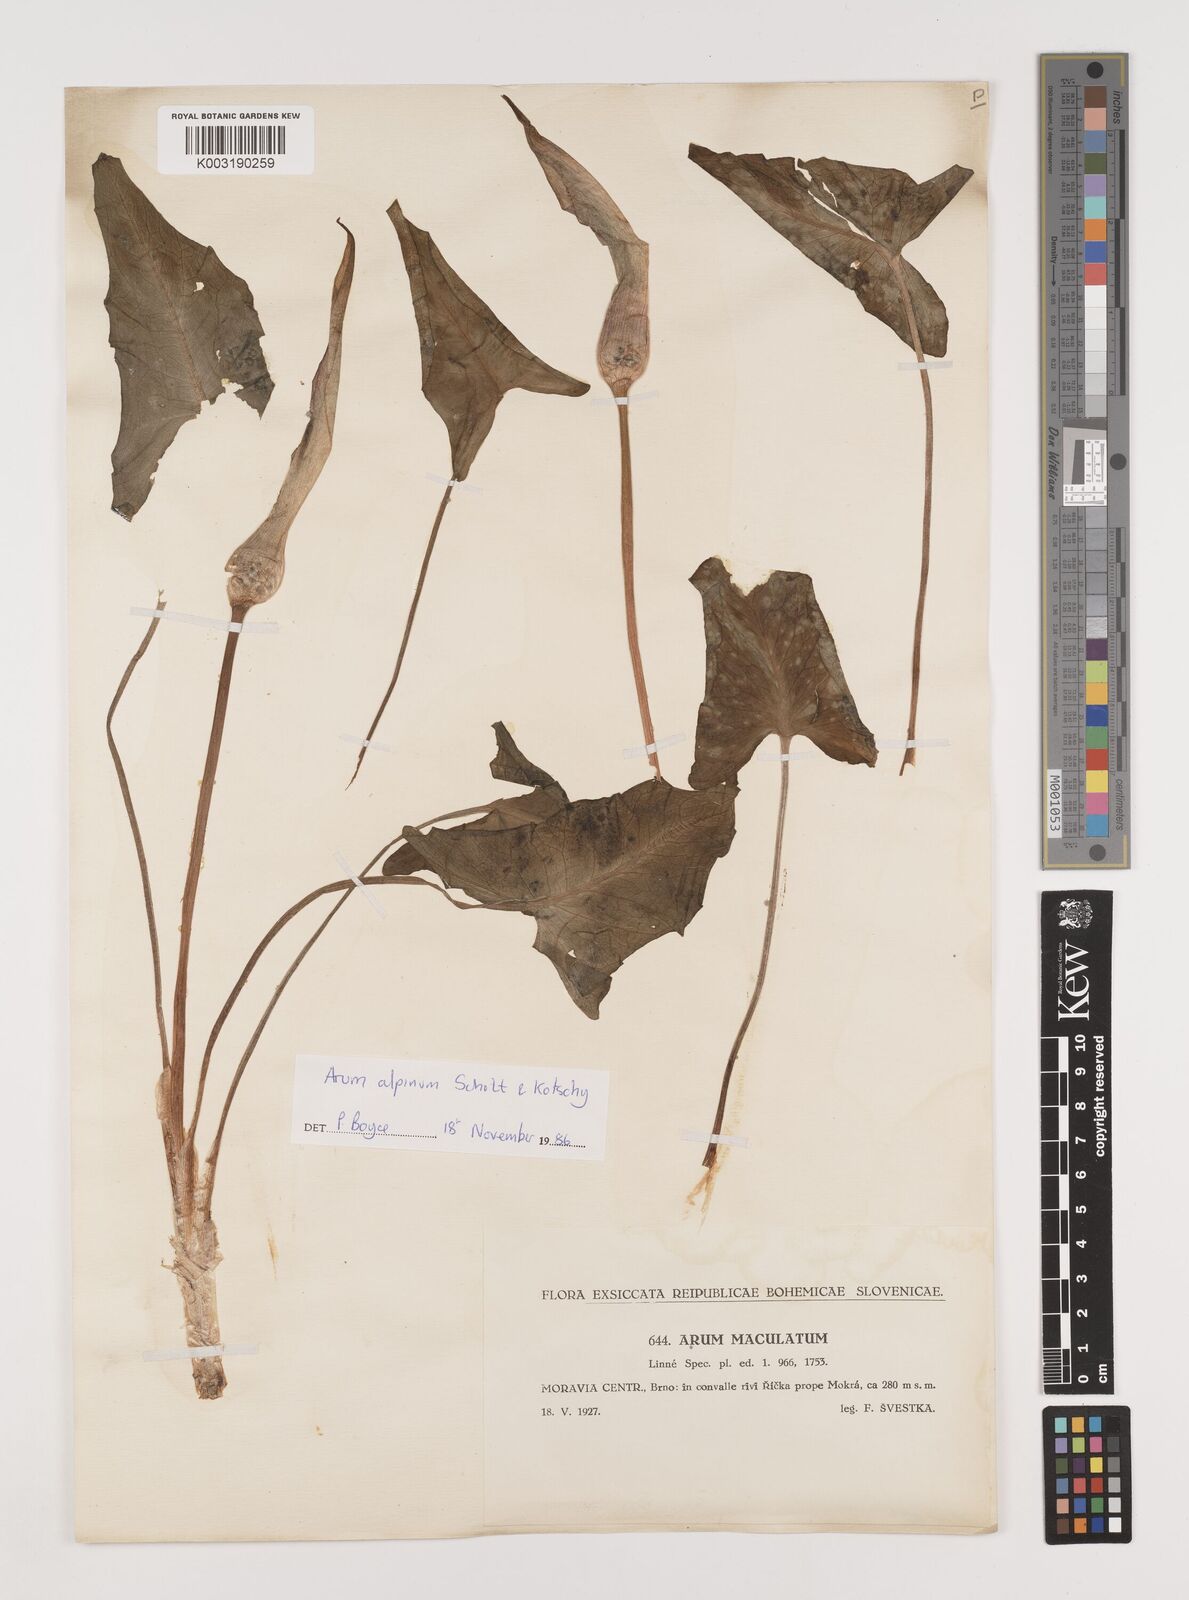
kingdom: Plantae
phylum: Tracheophyta
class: Liliopsida
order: Alismatales
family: Araceae
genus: Arum
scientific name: Arum cylindraceum
